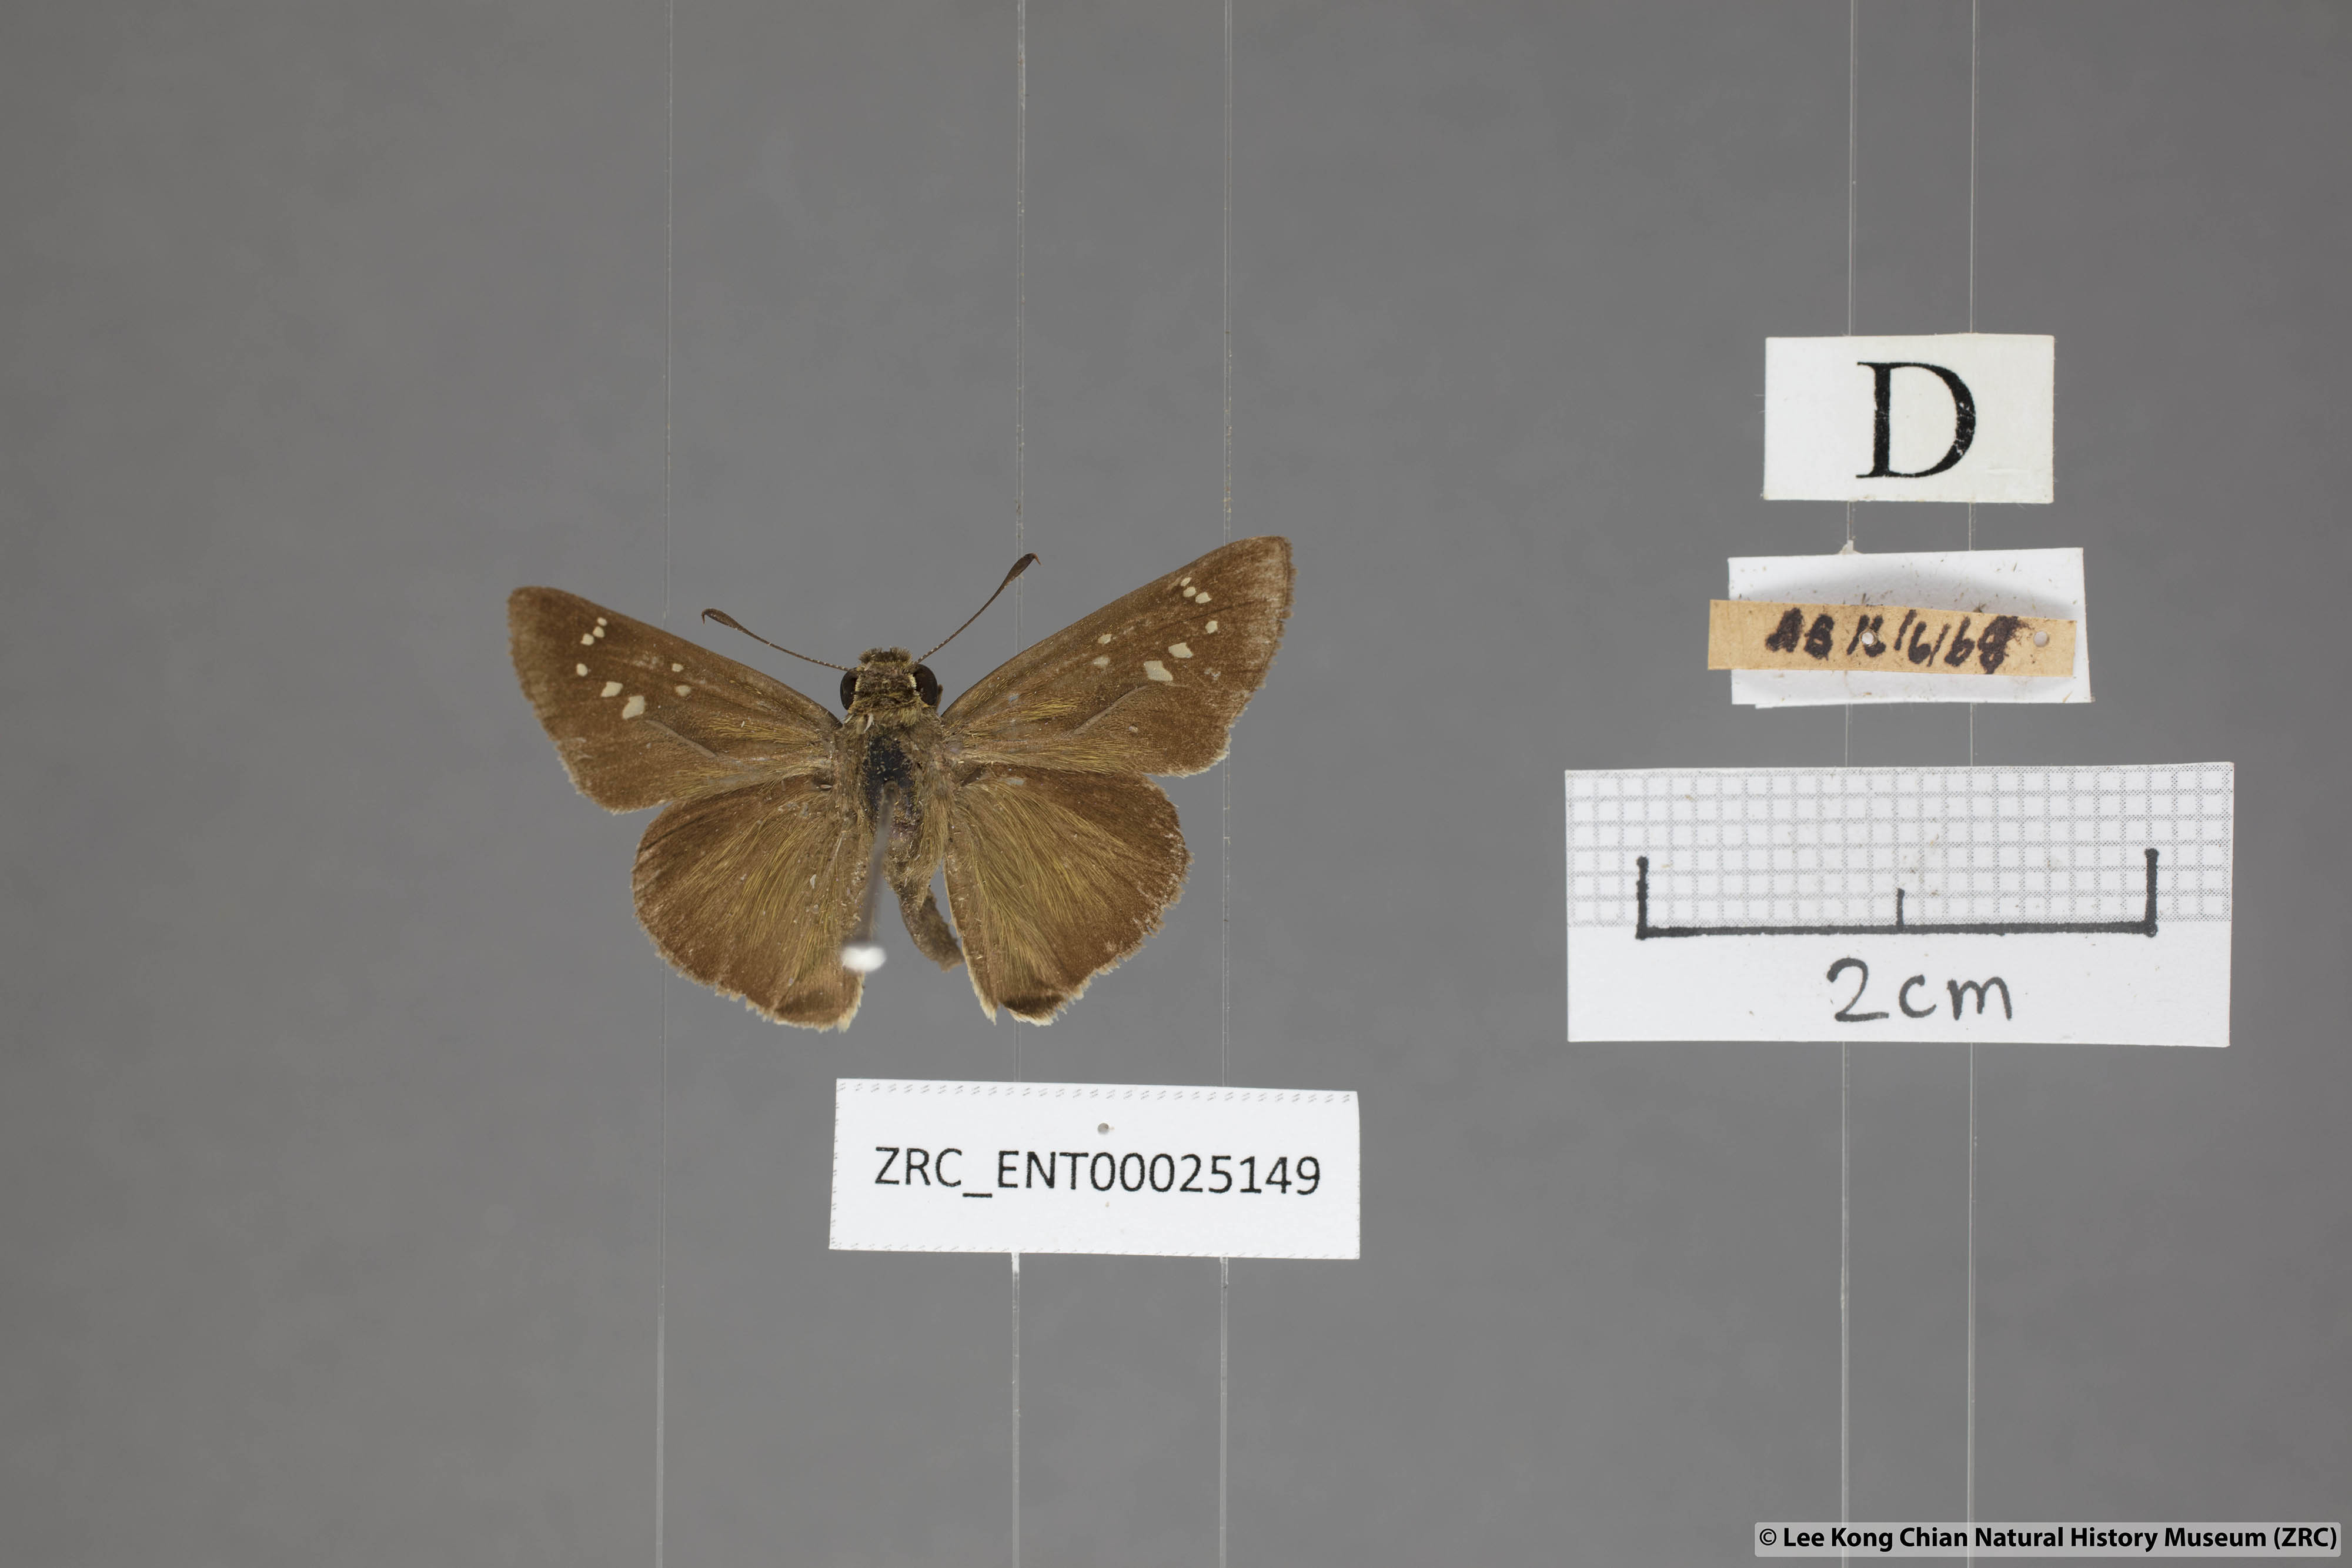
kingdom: Animalia
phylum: Arthropoda
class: Insecta
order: Lepidoptera
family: Hesperiidae
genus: Pelopidas
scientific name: Pelopidas mathias
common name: Black-branded swift
